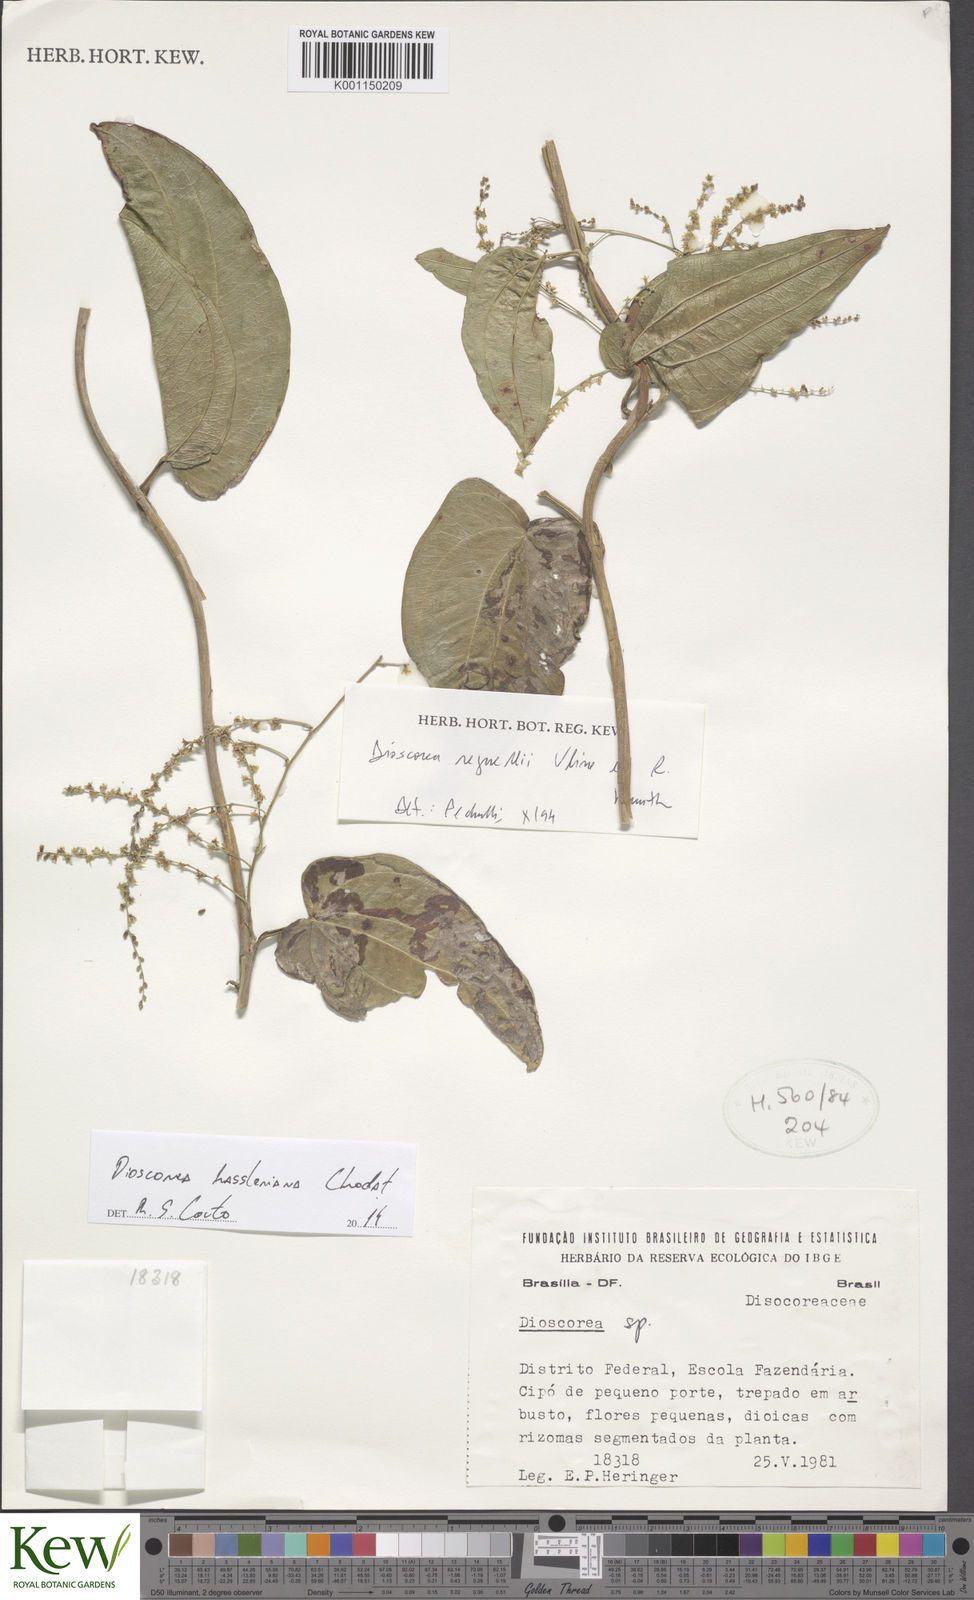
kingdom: Plantae
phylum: Tracheophyta
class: Liliopsida
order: Dioscoreales
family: Dioscoreaceae
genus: Dioscorea
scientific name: Dioscorea hassleriana
